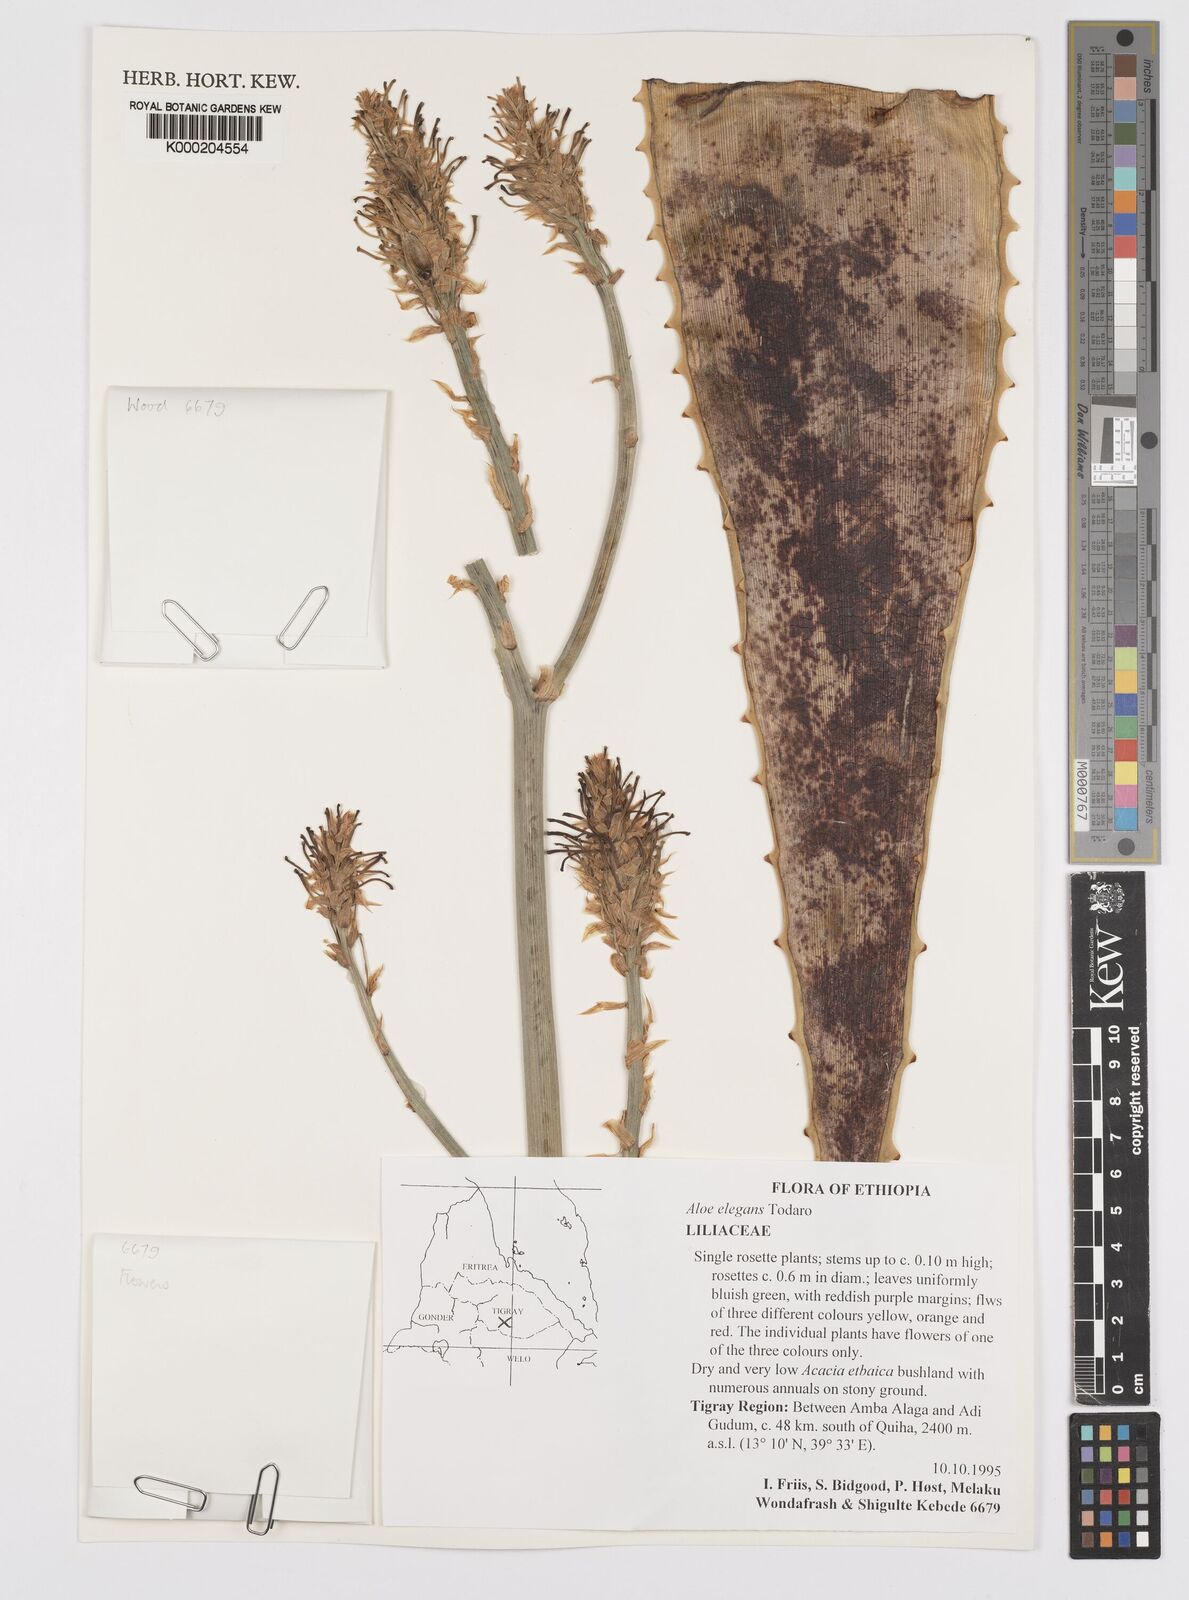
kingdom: Plantae
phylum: Tracheophyta
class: Liliopsida
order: Asparagales
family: Asphodelaceae
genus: Aloe
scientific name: Aloe elegans
